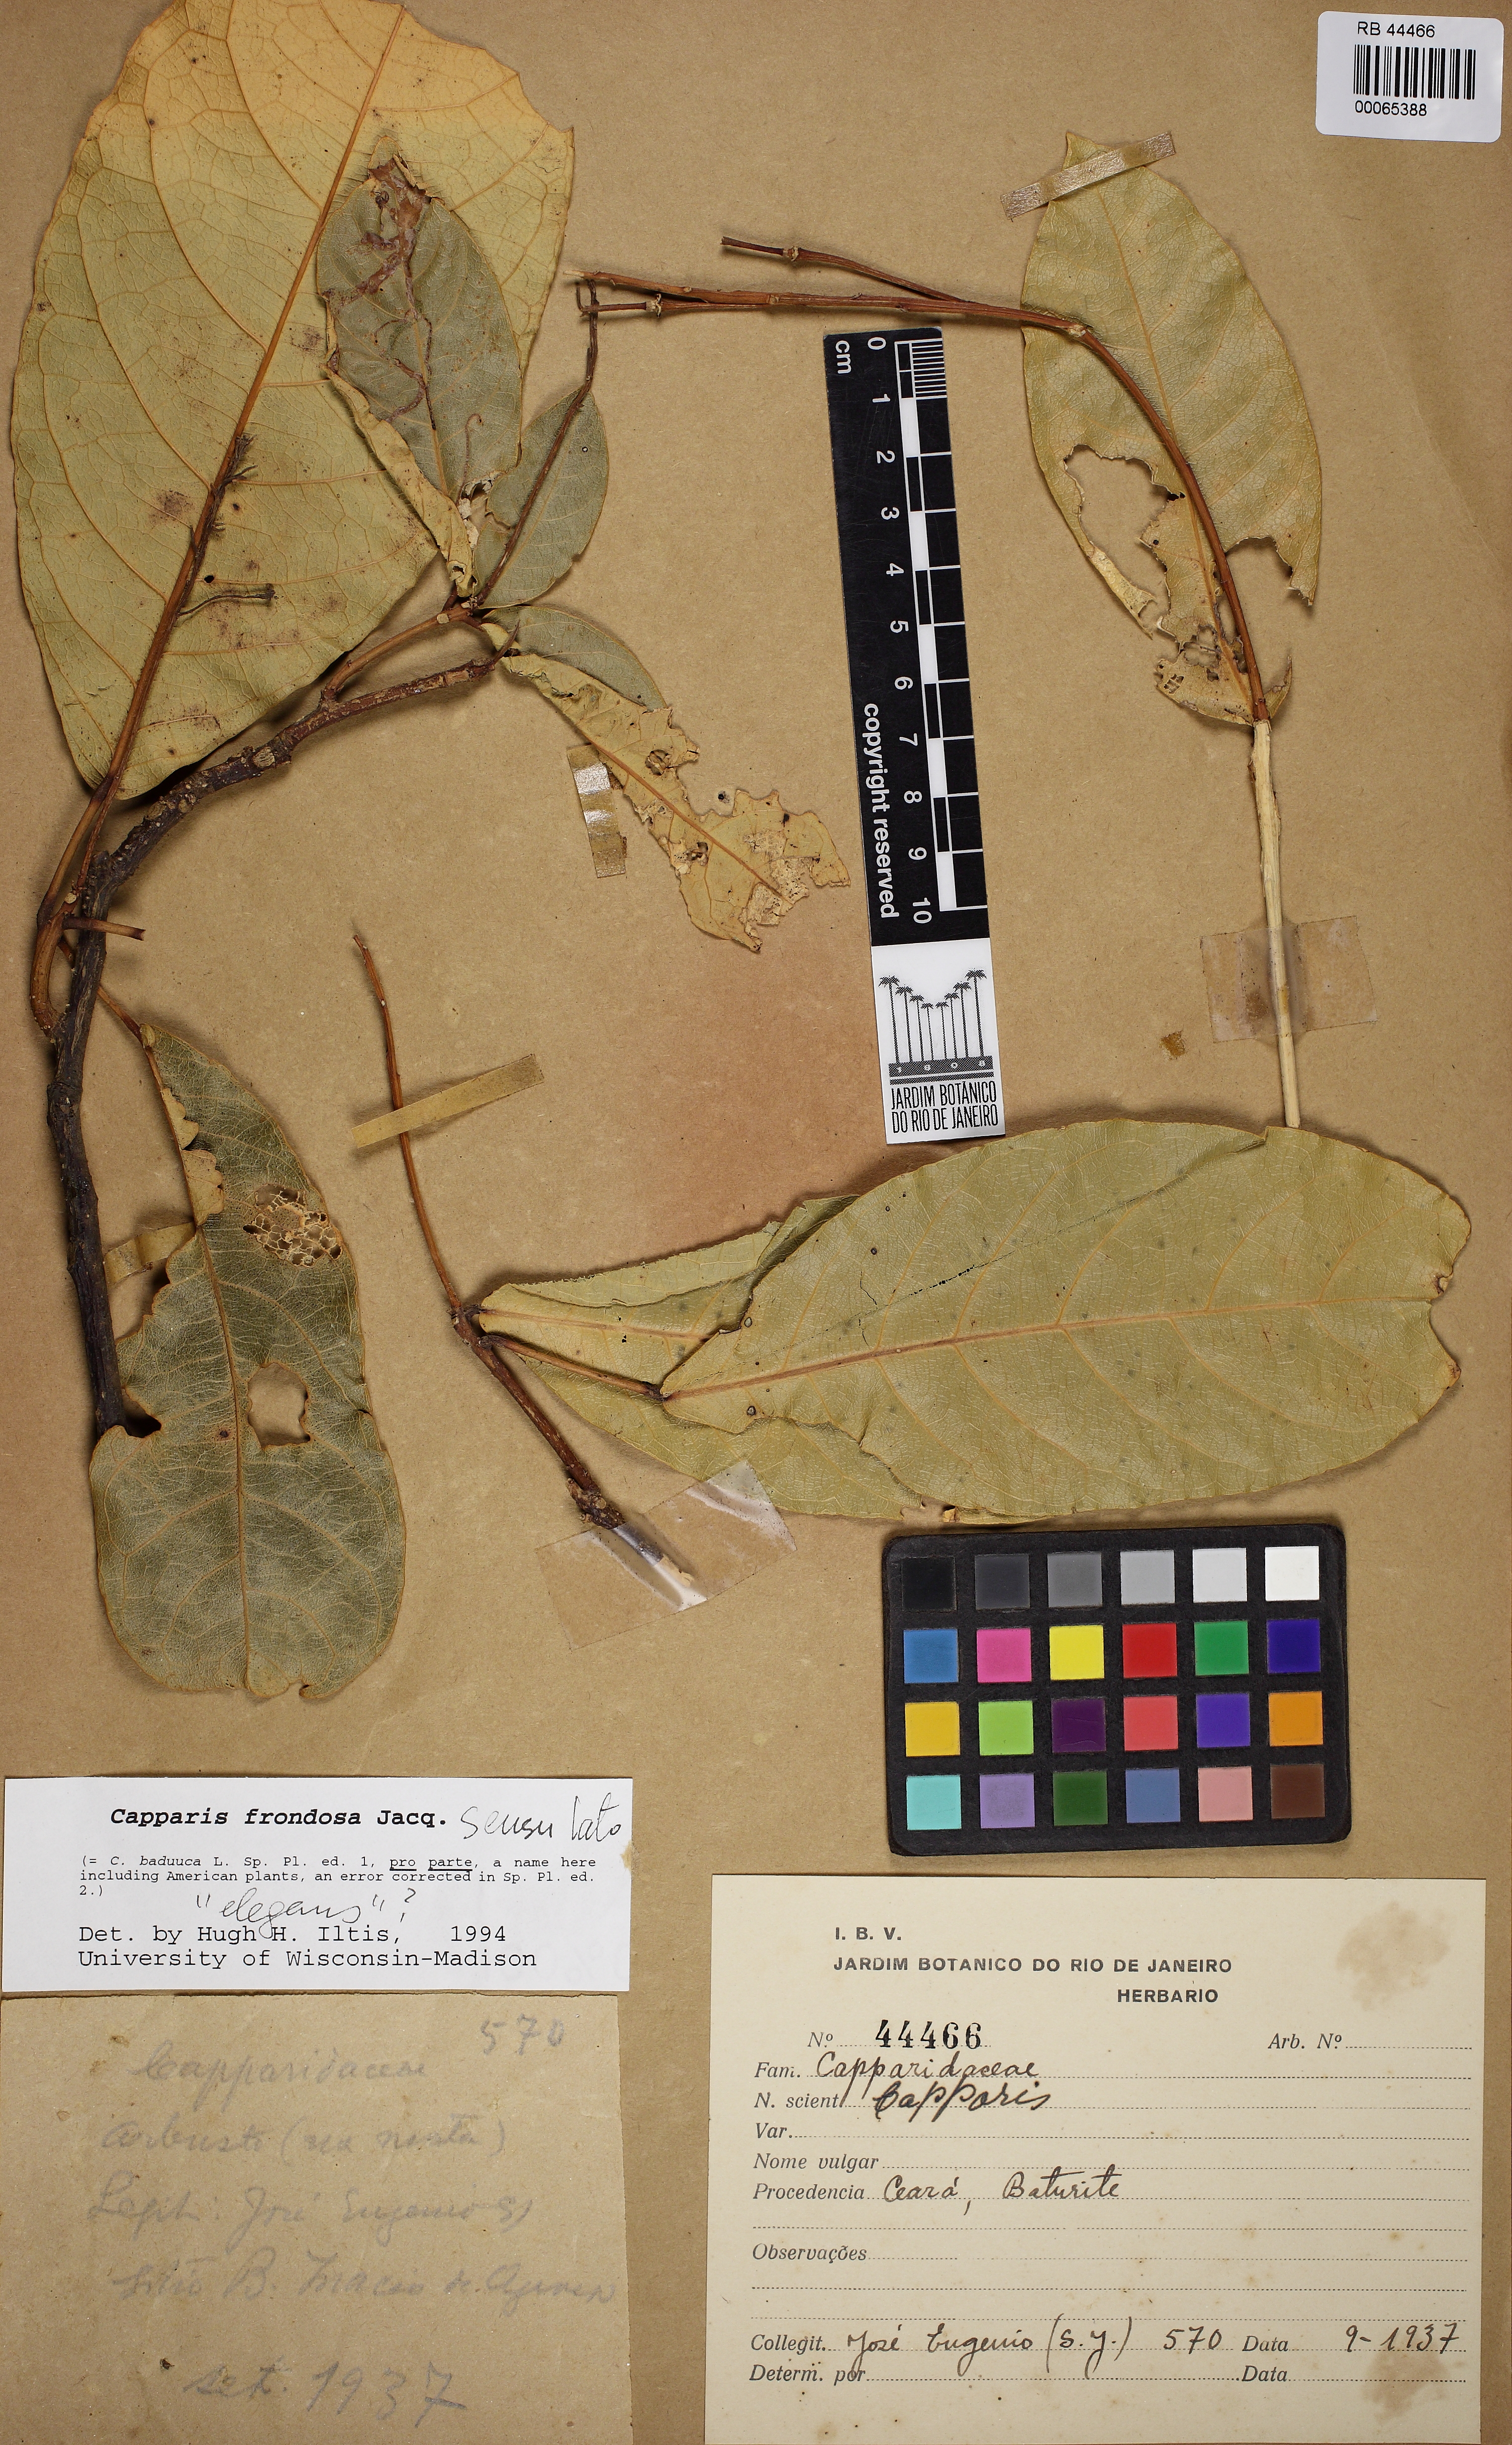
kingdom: Plantae
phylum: Tracheophyta
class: Magnoliopsida
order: Brassicales
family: Capparaceae
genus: Capparidastrum
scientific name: Capparidastrum frondosum
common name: Church blossom
